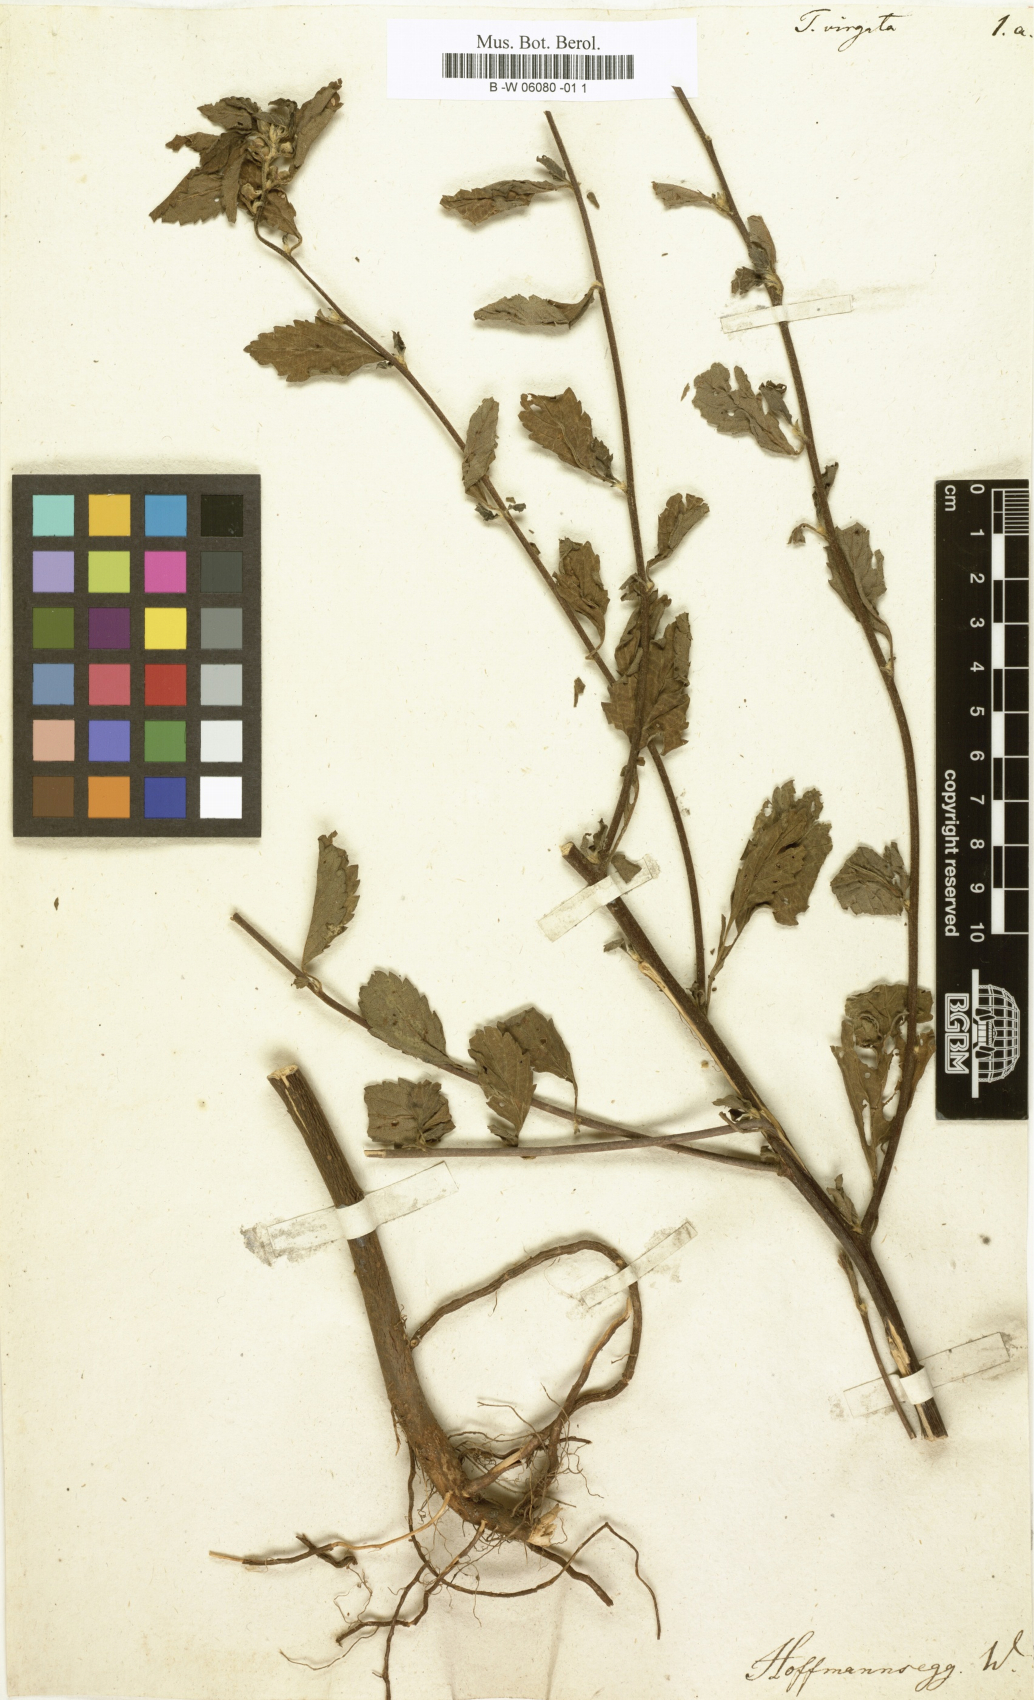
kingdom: Plantae
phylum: Tracheophyta
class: Magnoliopsida
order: Malpighiales
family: Turneraceae
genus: Turnera
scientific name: Turnera ulmifolia
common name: Ramgoat dashalong
